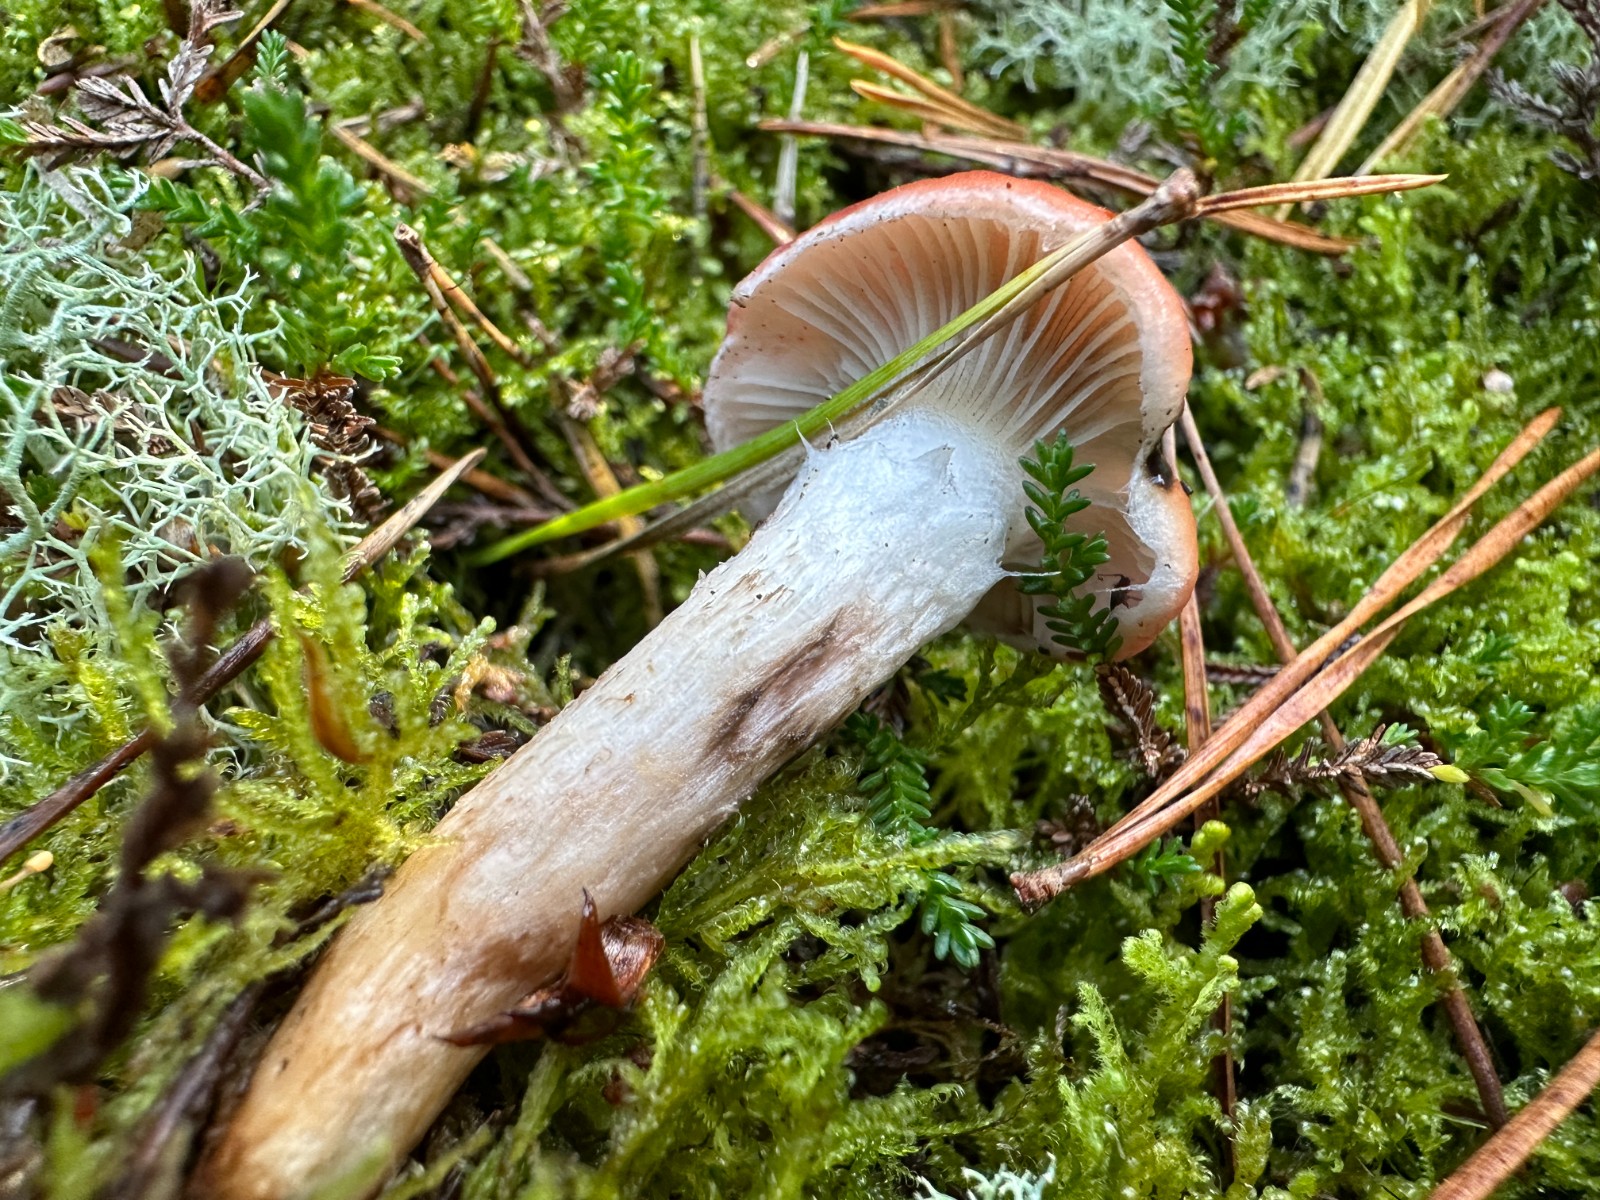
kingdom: Fungi
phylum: Basidiomycota
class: Agaricomycetes
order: Boletales
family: Gomphidiaceae
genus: Gomphidius
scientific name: Gomphidius roseus
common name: rosenrød slimslør
